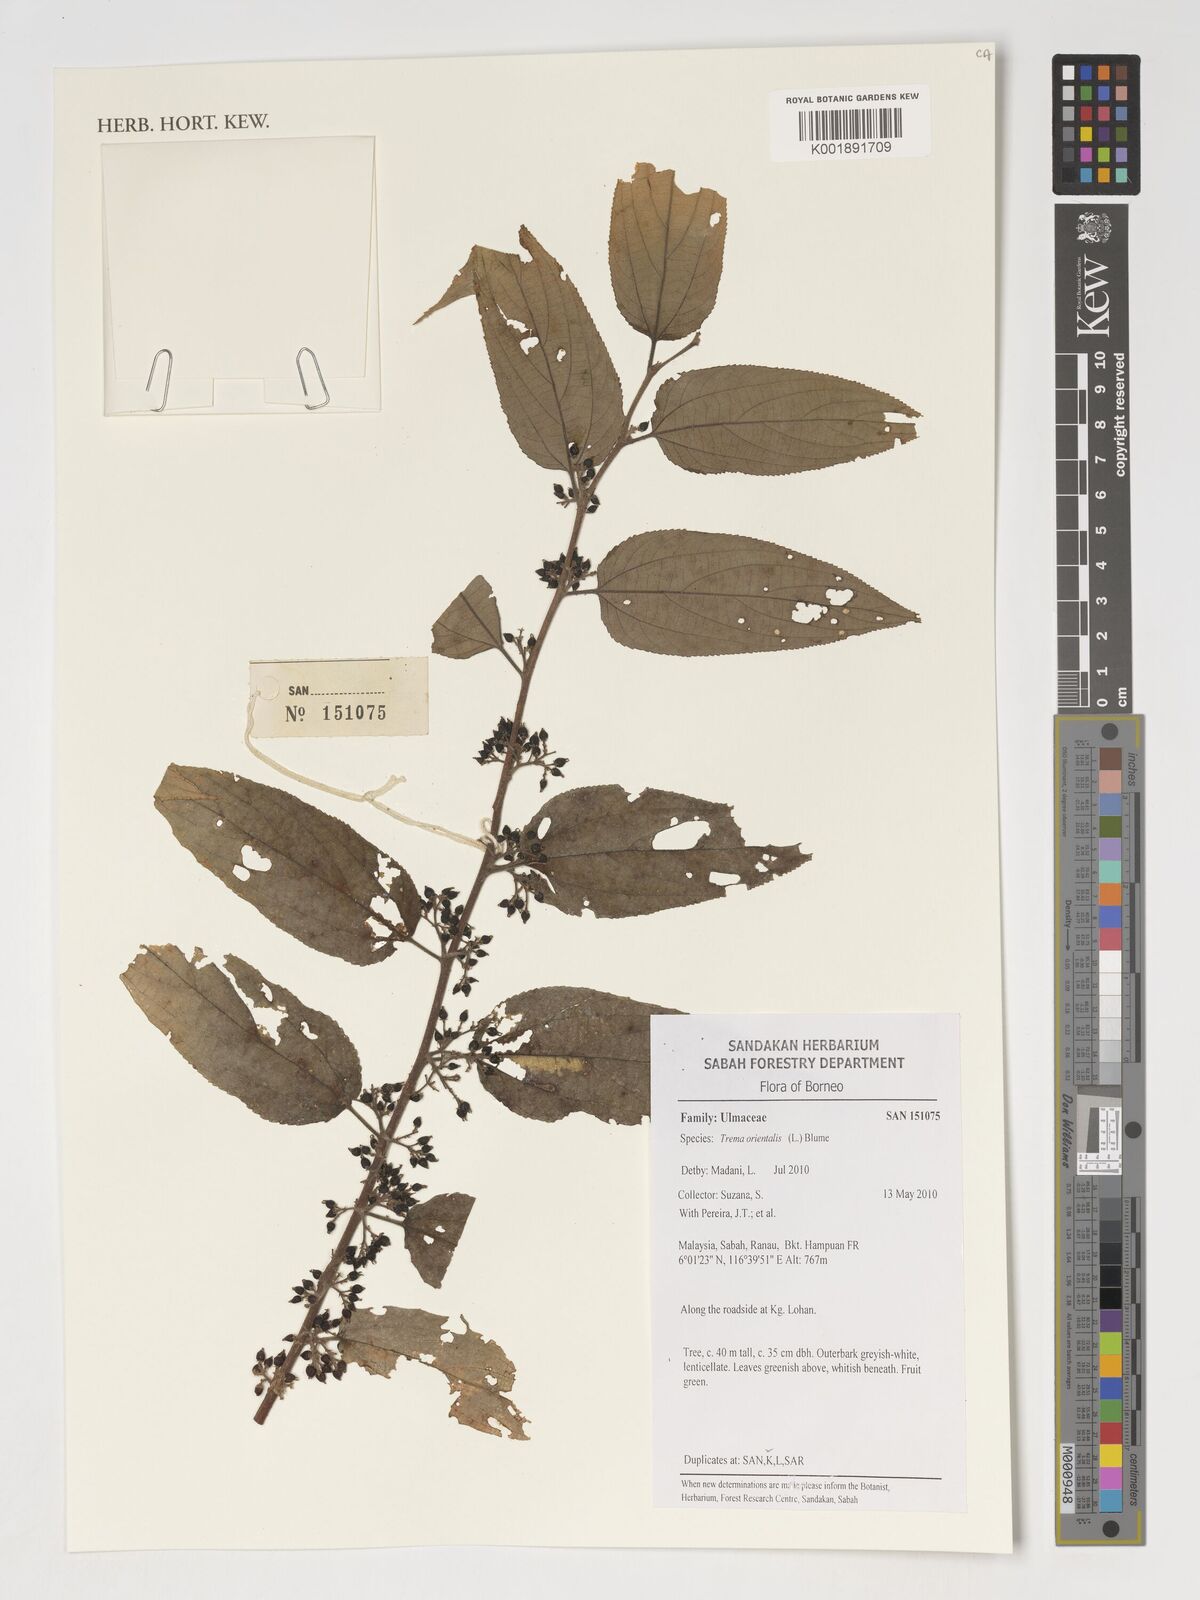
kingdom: Plantae
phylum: Tracheophyta
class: Magnoliopsida
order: Rosales
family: Cannabaceae
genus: Trema
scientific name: Trema orientale
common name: Indian charcoal tree
